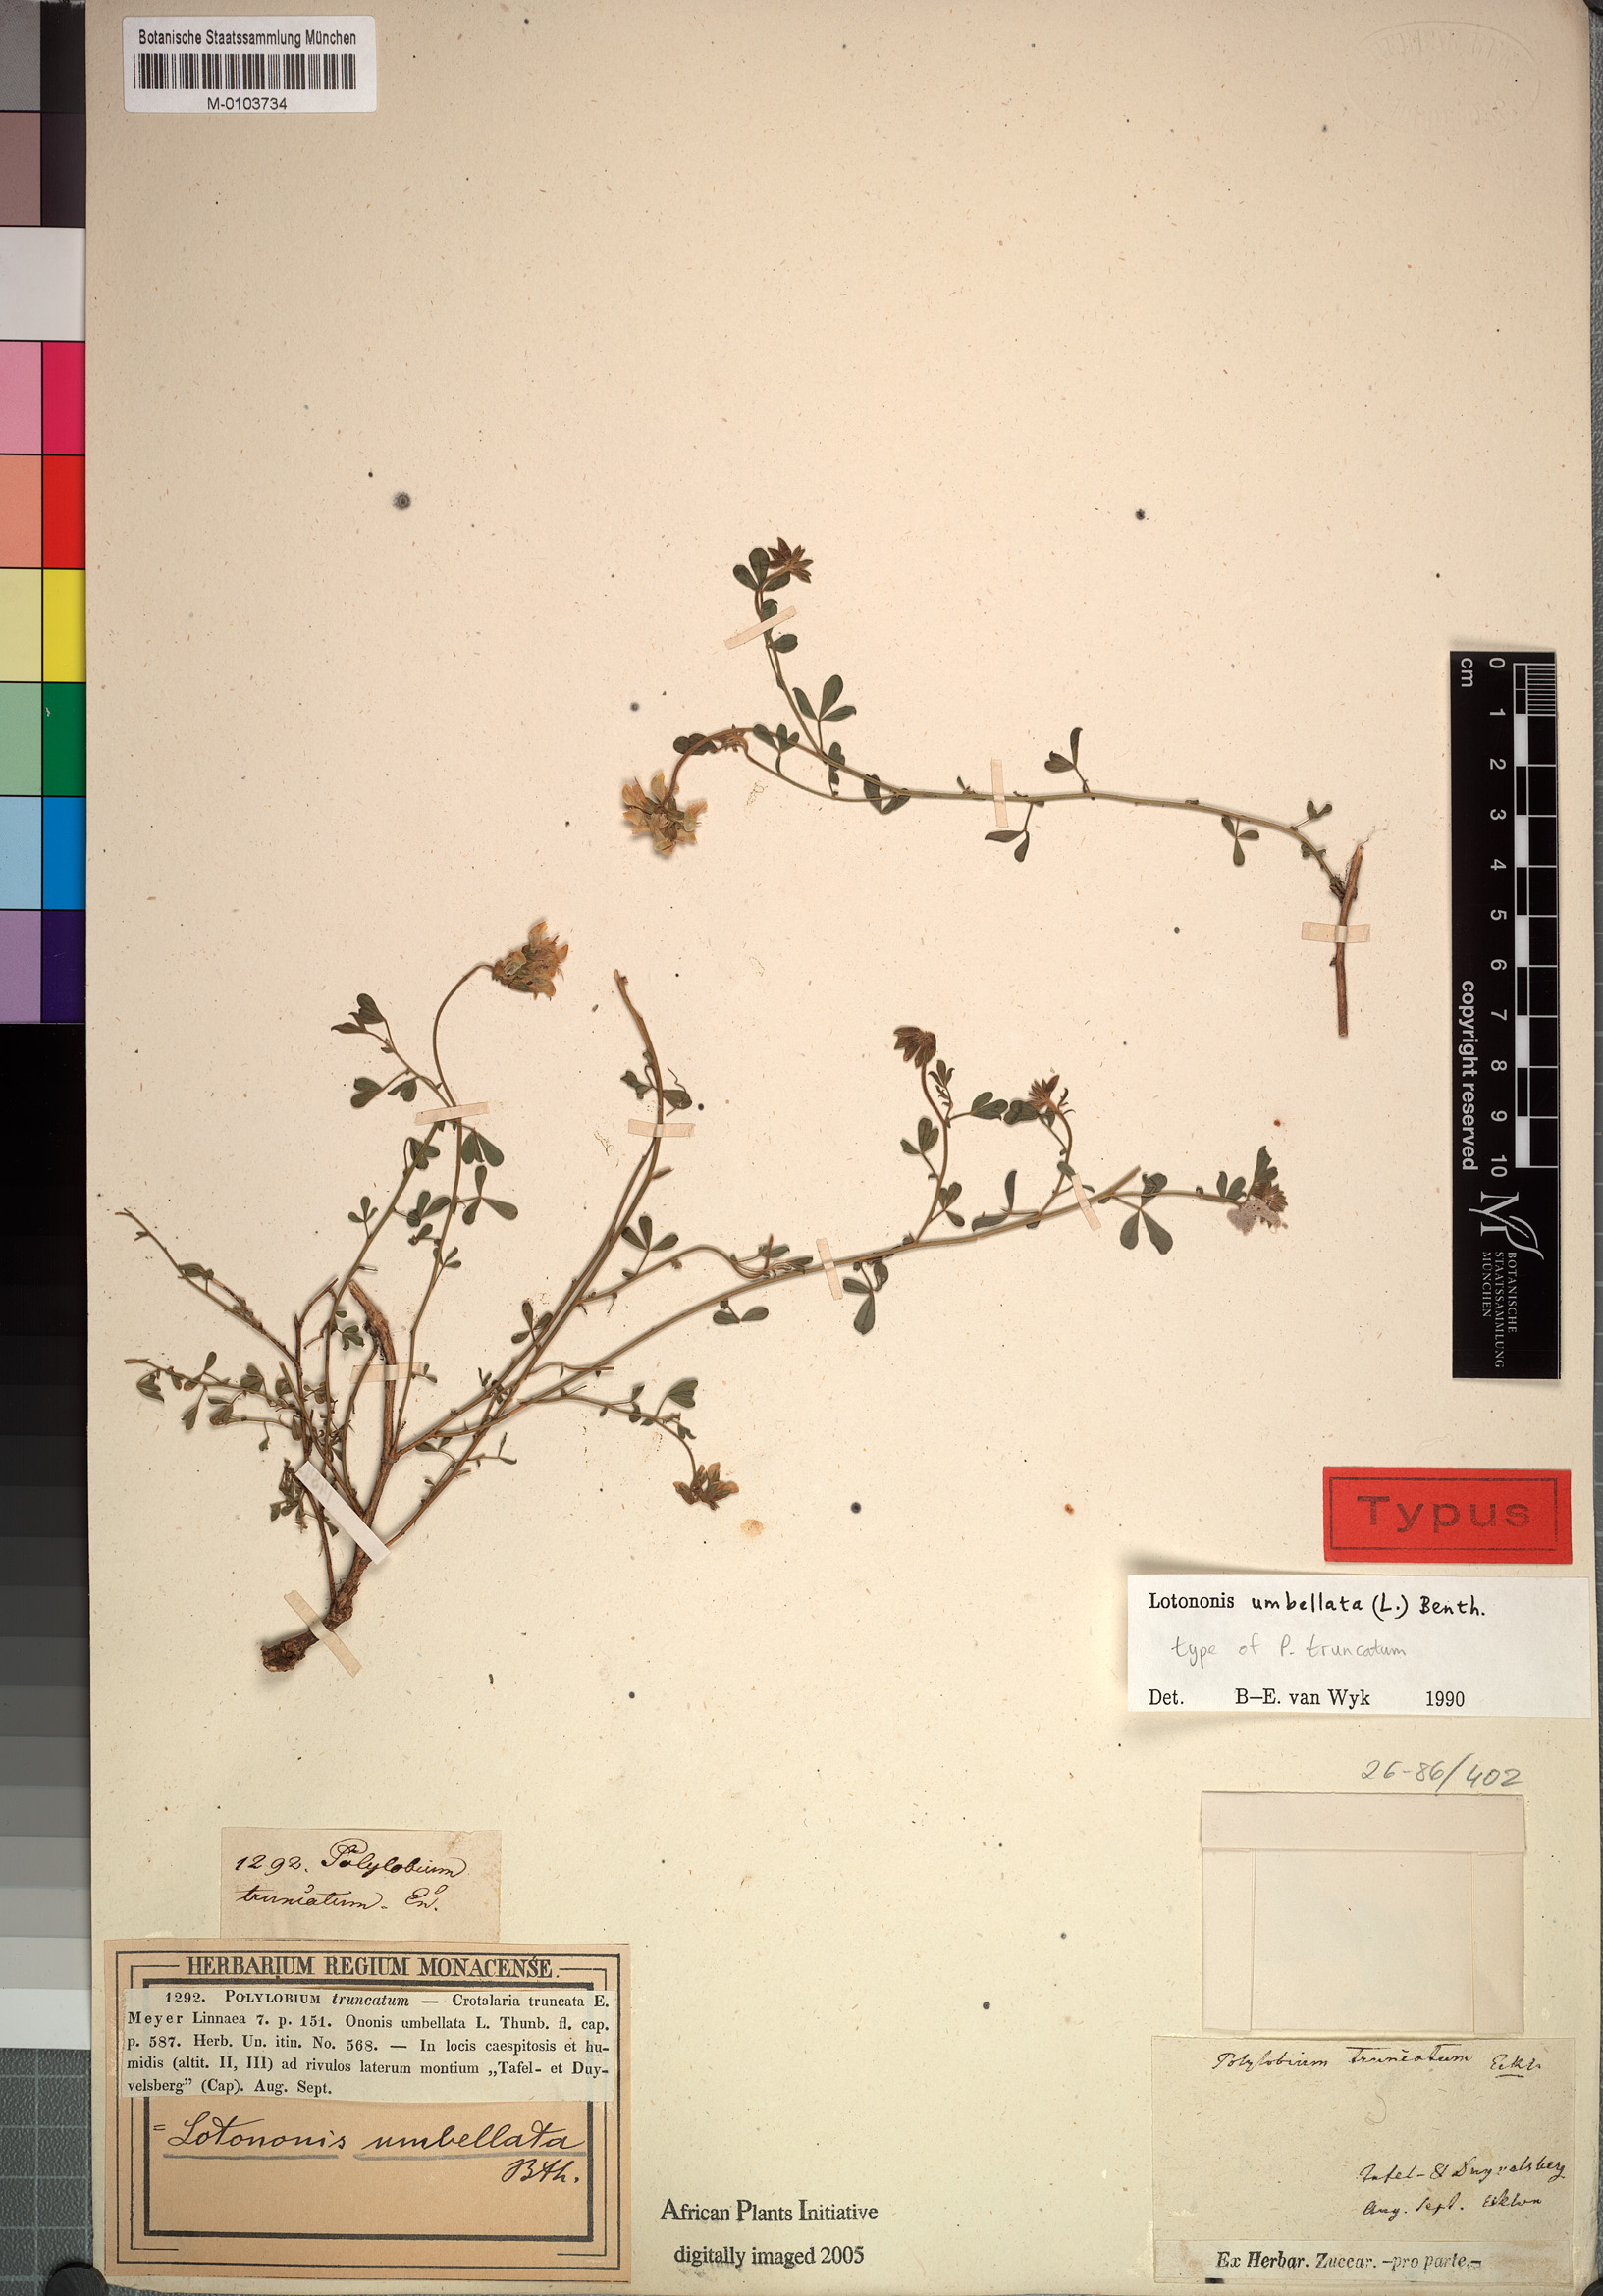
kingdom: Plantae
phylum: Tracheophyta
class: Magnoliopsida
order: Fabales
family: Fabaceae
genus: Lotononis
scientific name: Lotononis umbellata
